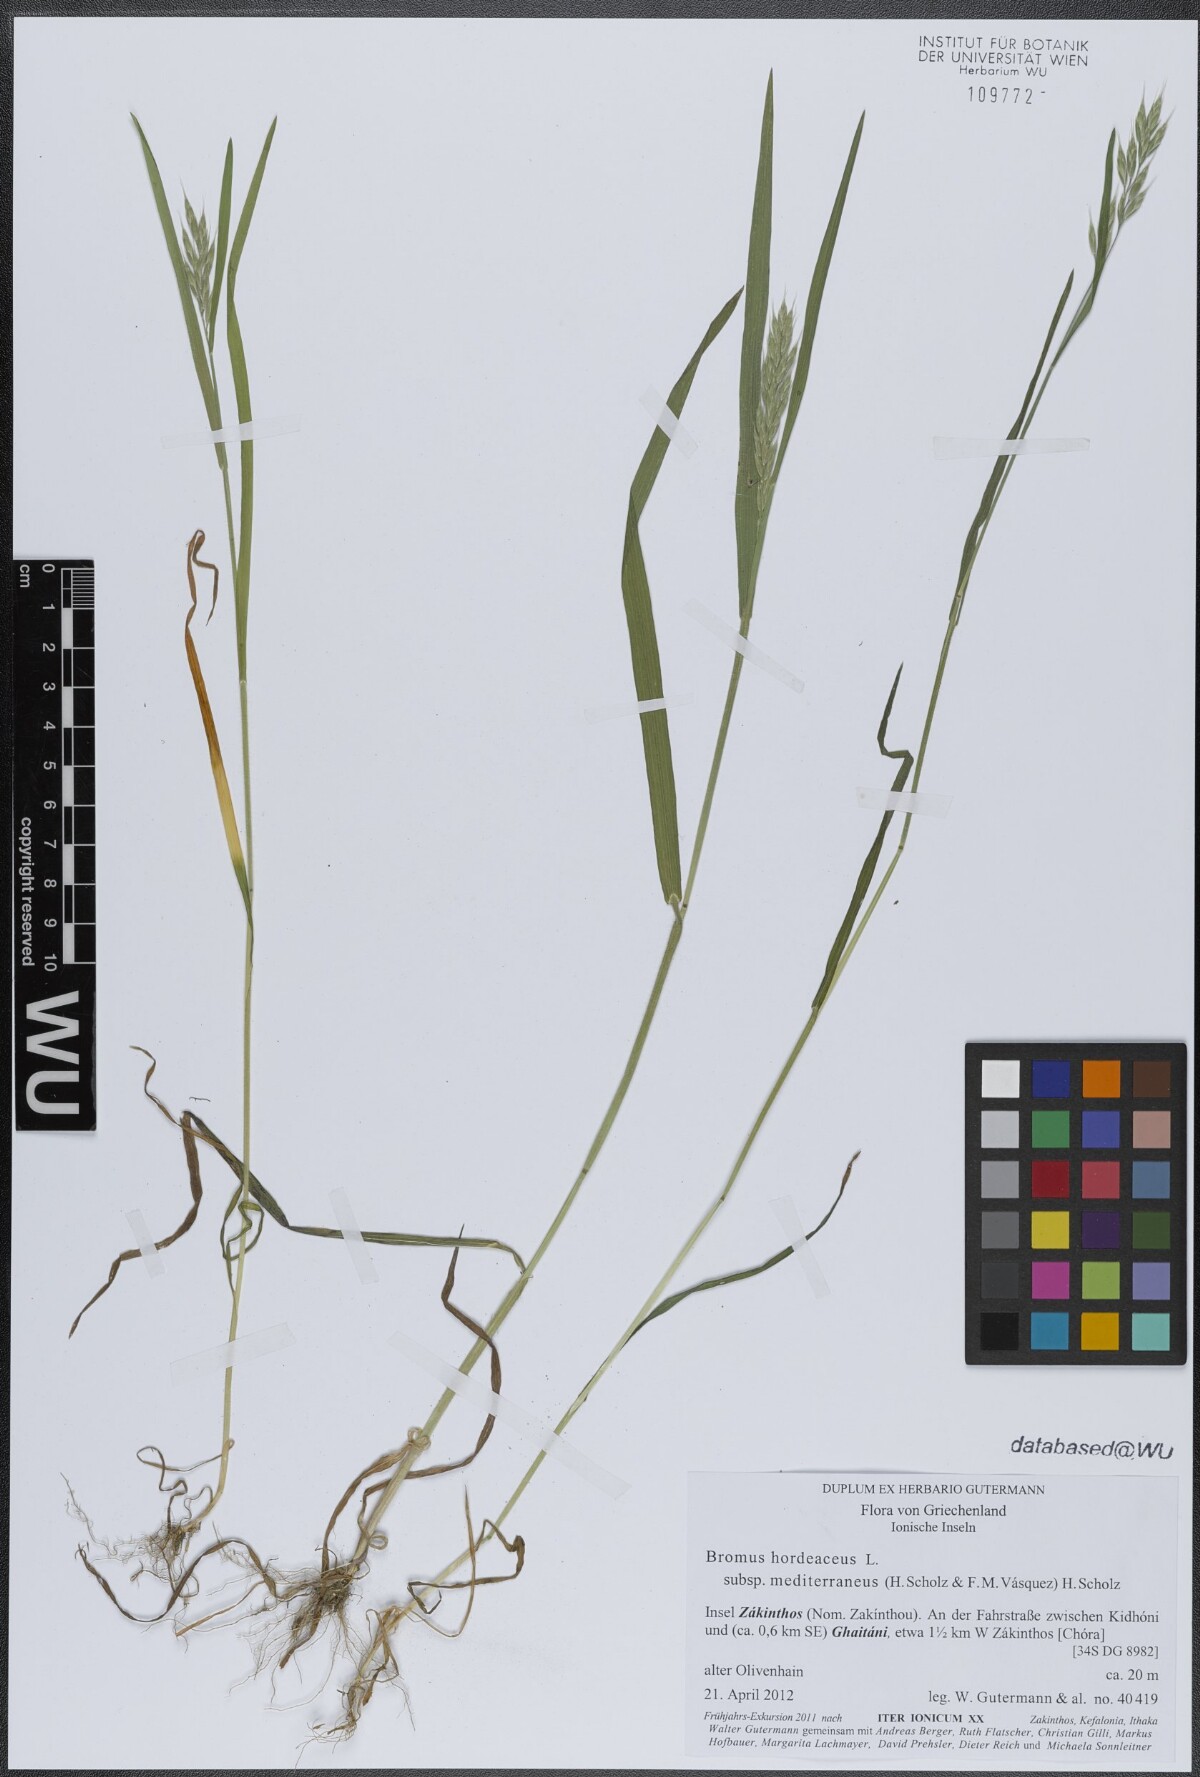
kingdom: Plantae
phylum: Tracheophyta
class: Liliopsida
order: Poales
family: Poaceae
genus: Bromus
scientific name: Bromus hordeaceus
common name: Soft brome
